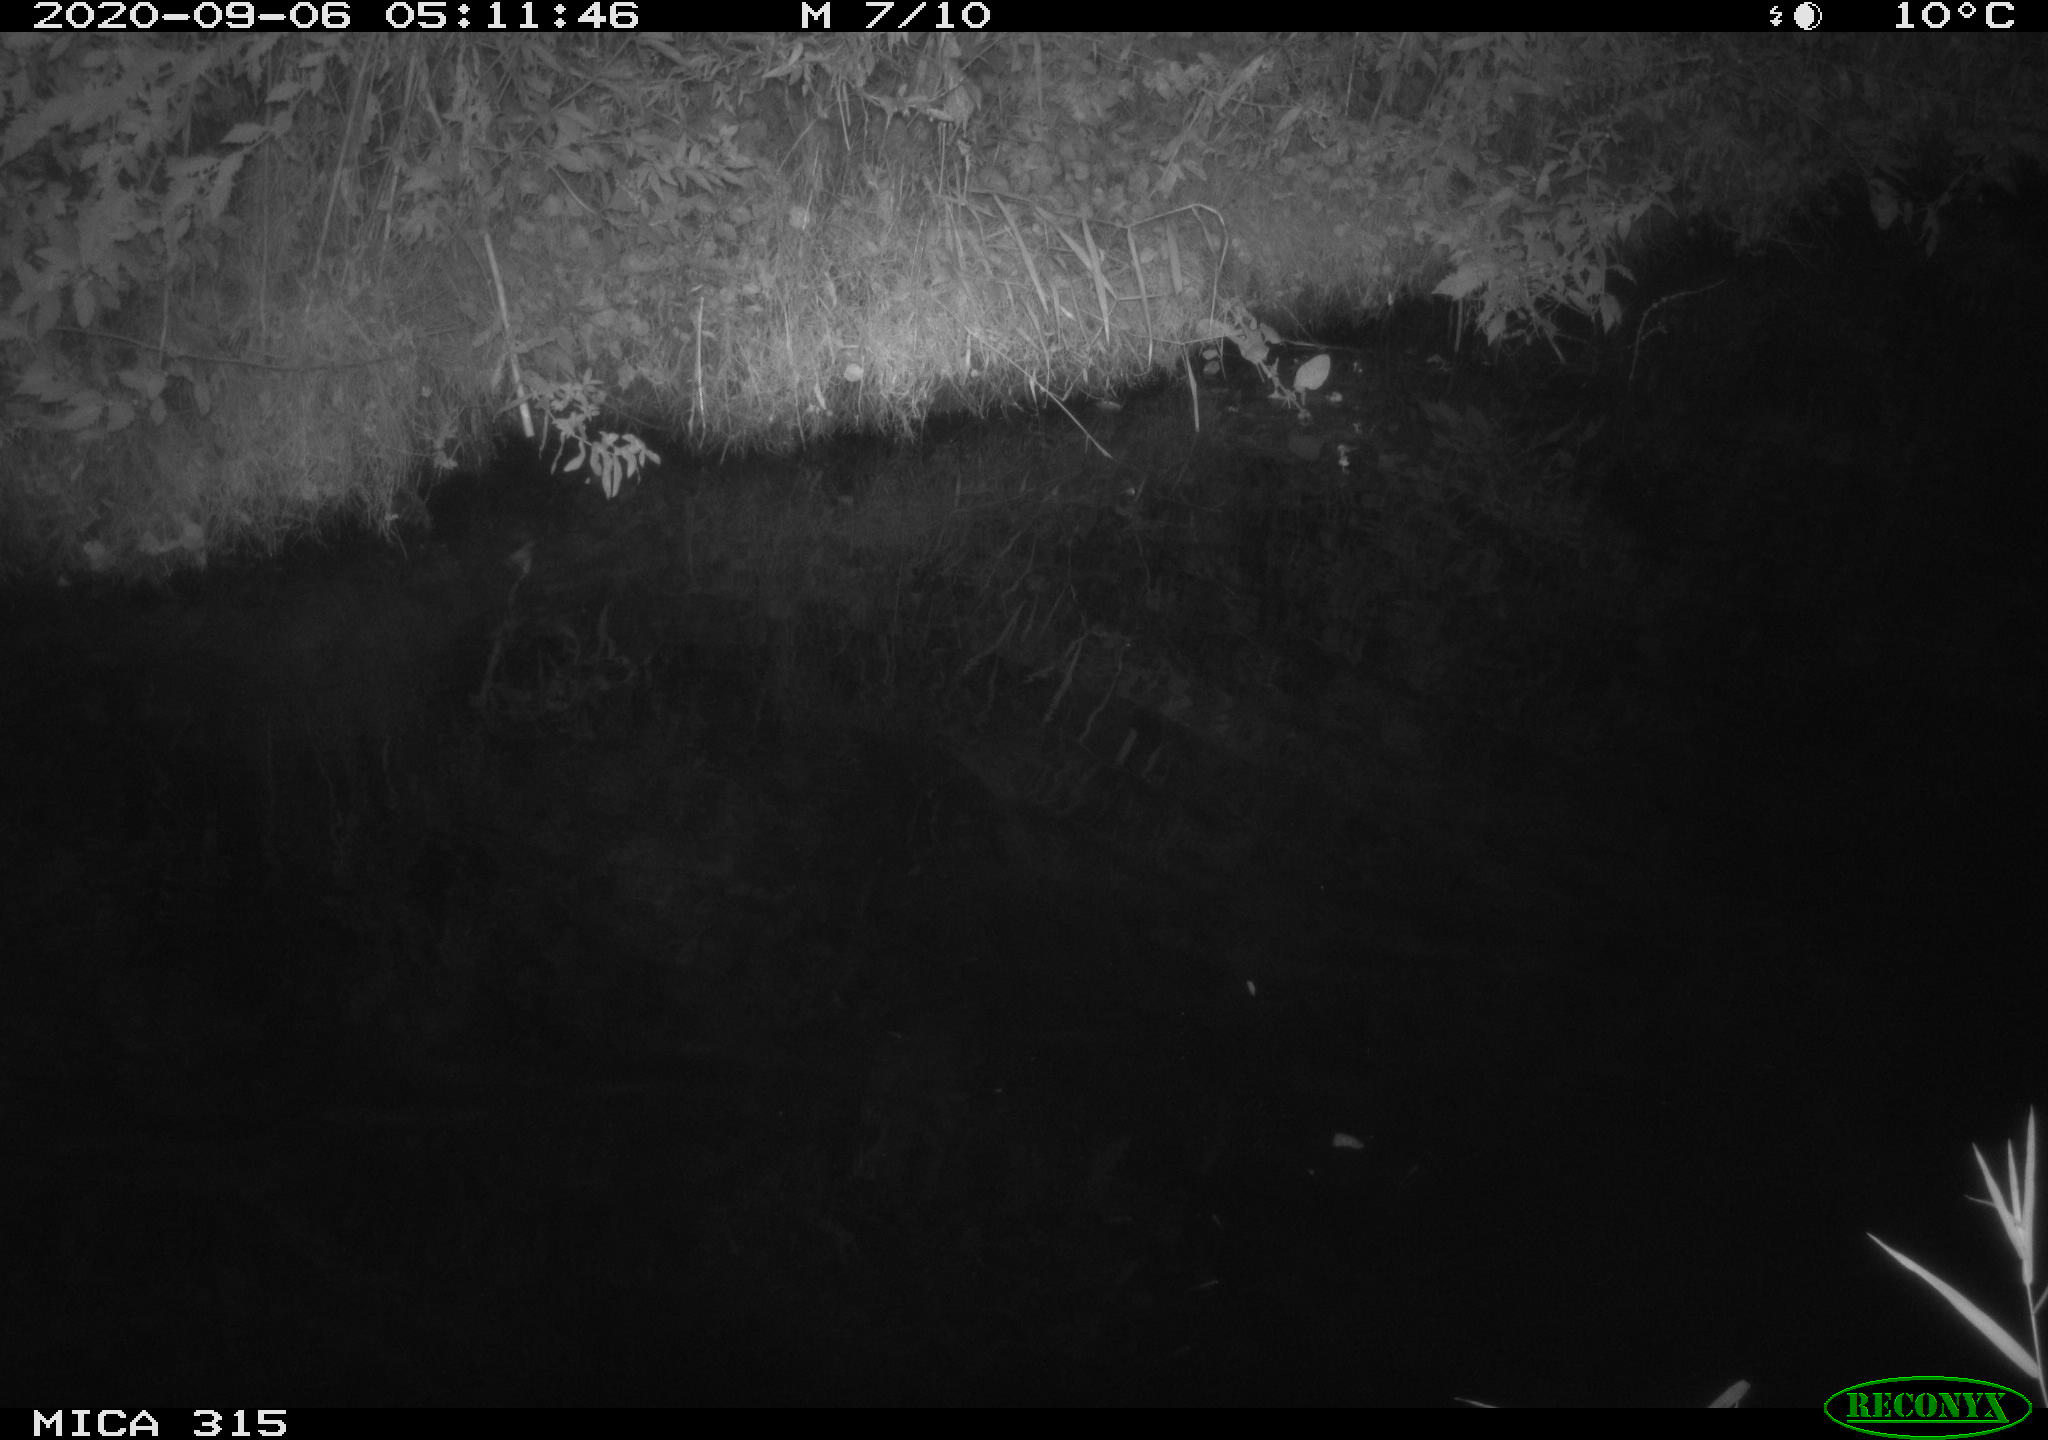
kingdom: Animalia
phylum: Chordata
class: Aves
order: Anseriformes
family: Anatidae
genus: Anas
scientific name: Anas platyrhynchos
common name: Mallard
